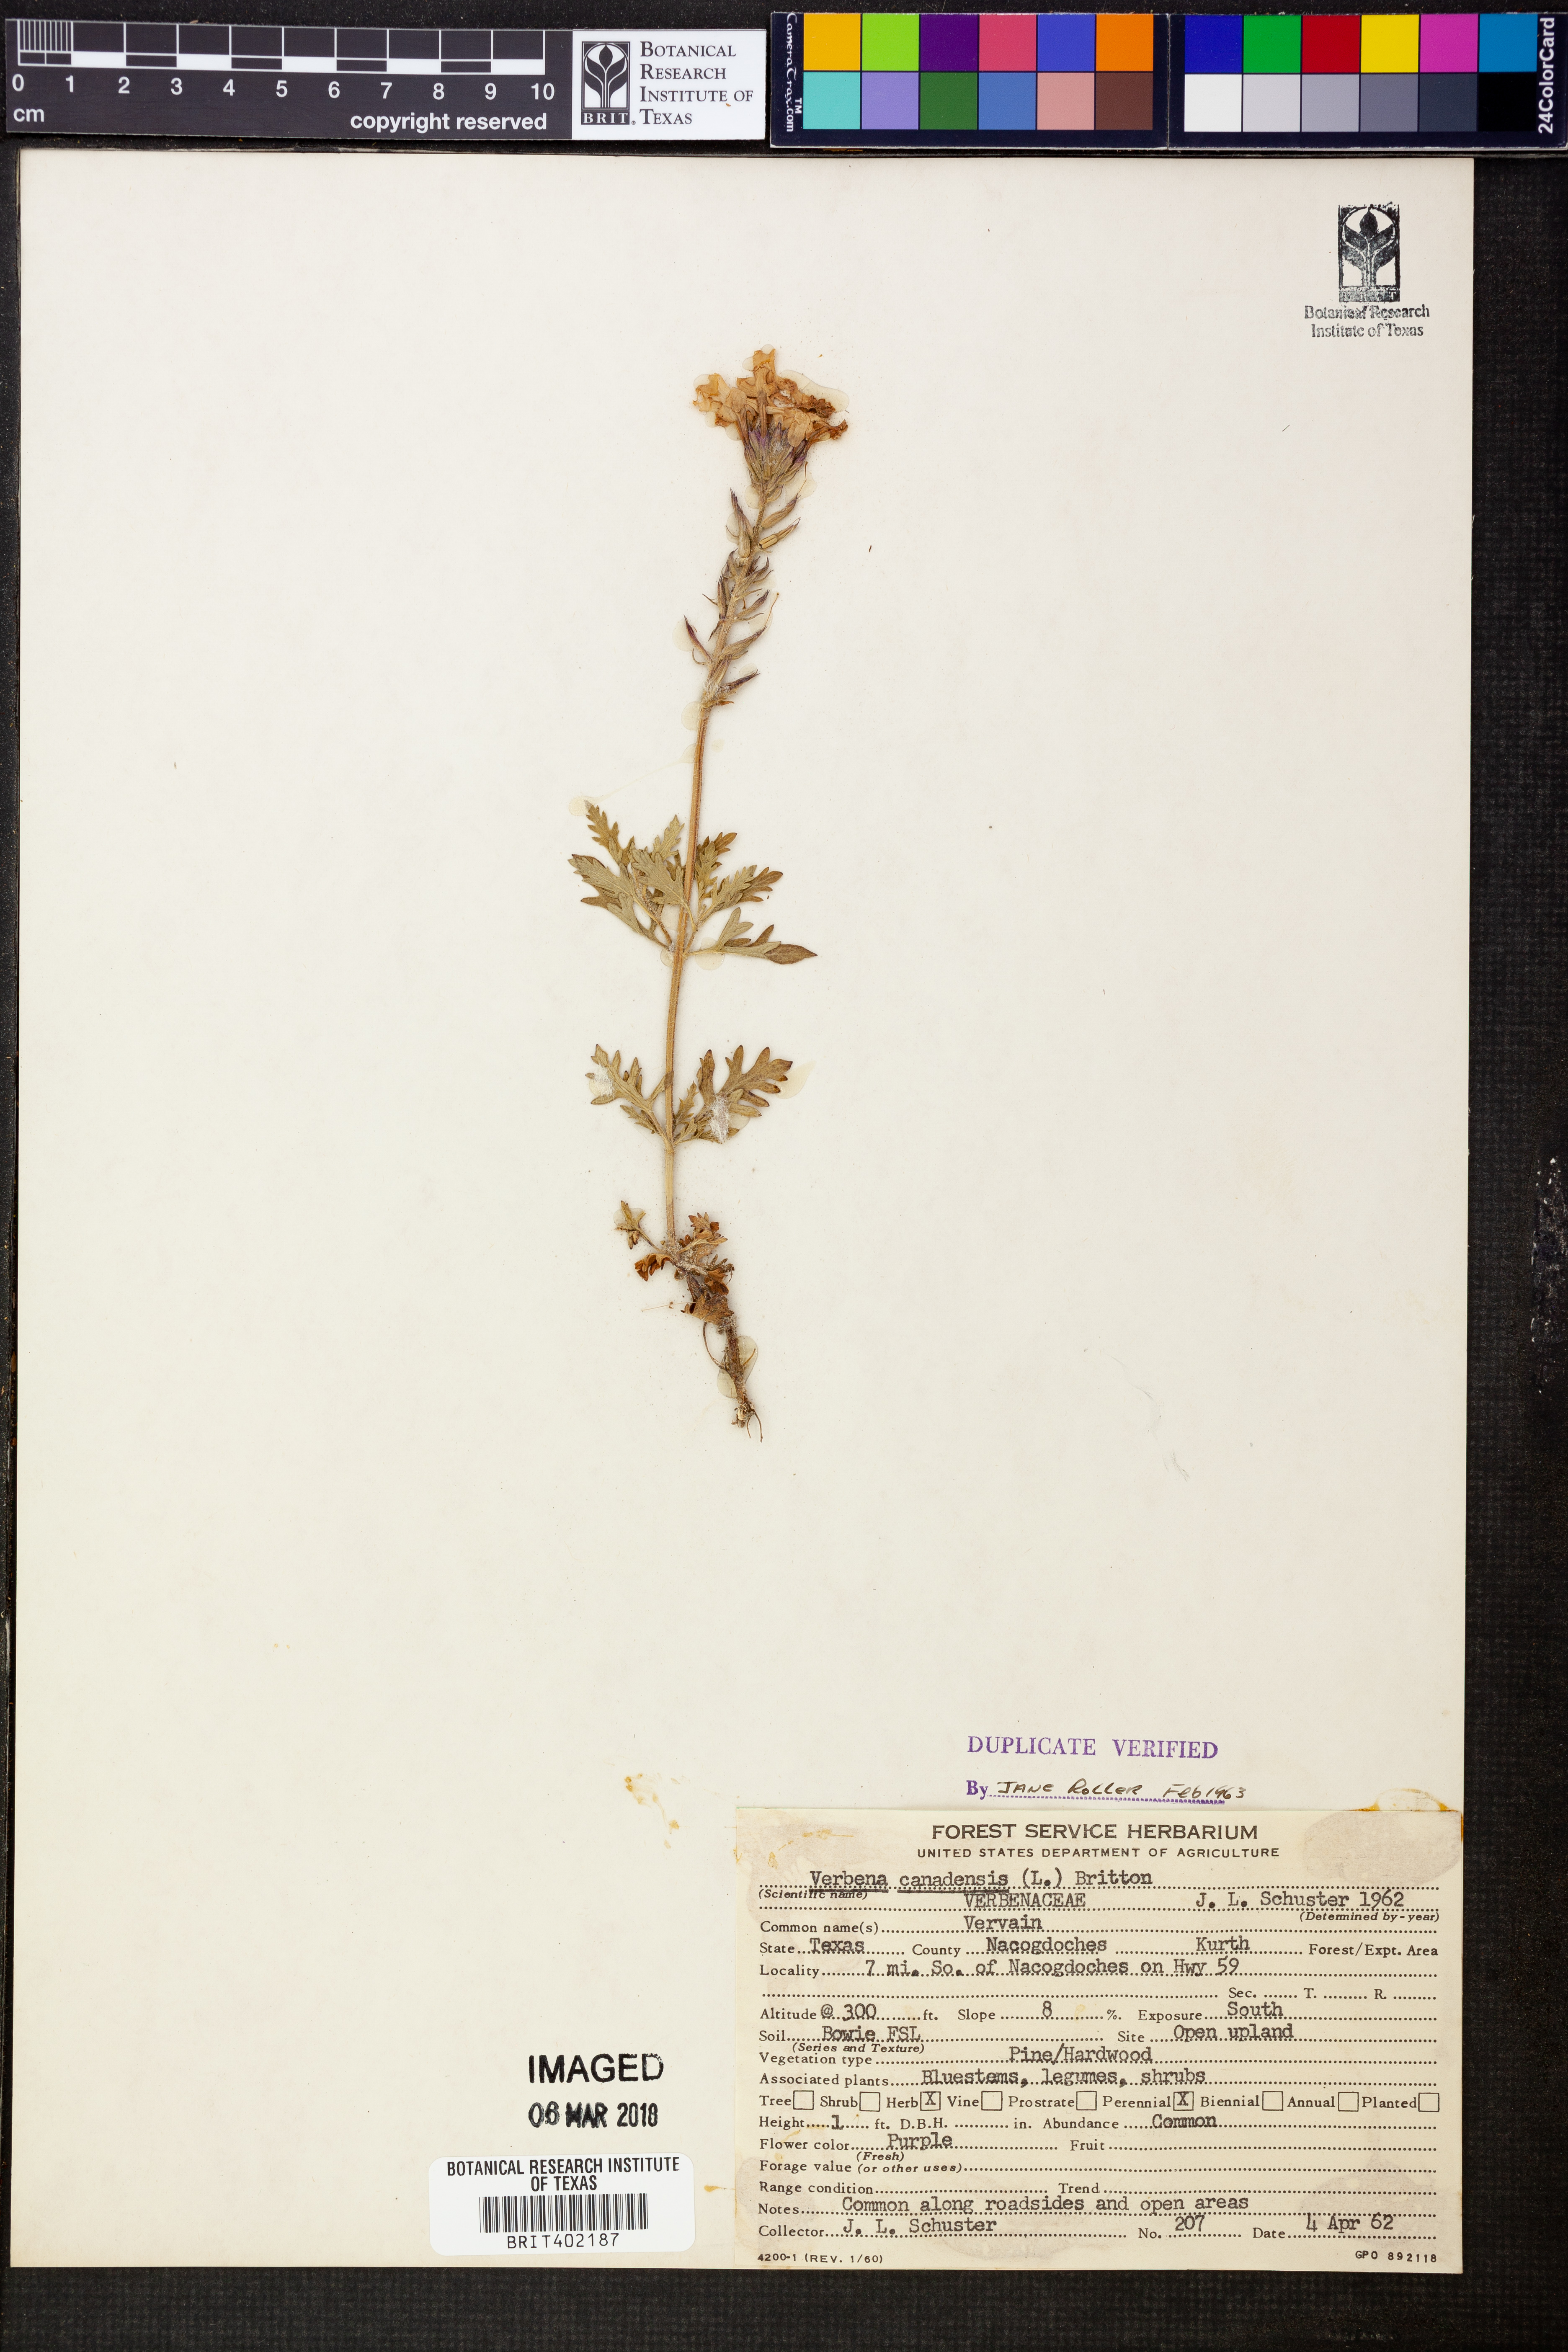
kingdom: Plantae
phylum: Tracheophyta
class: Magnoliopsida
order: Lamiales
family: Verbenaceae
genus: Verbena
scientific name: Verbena canadensis
